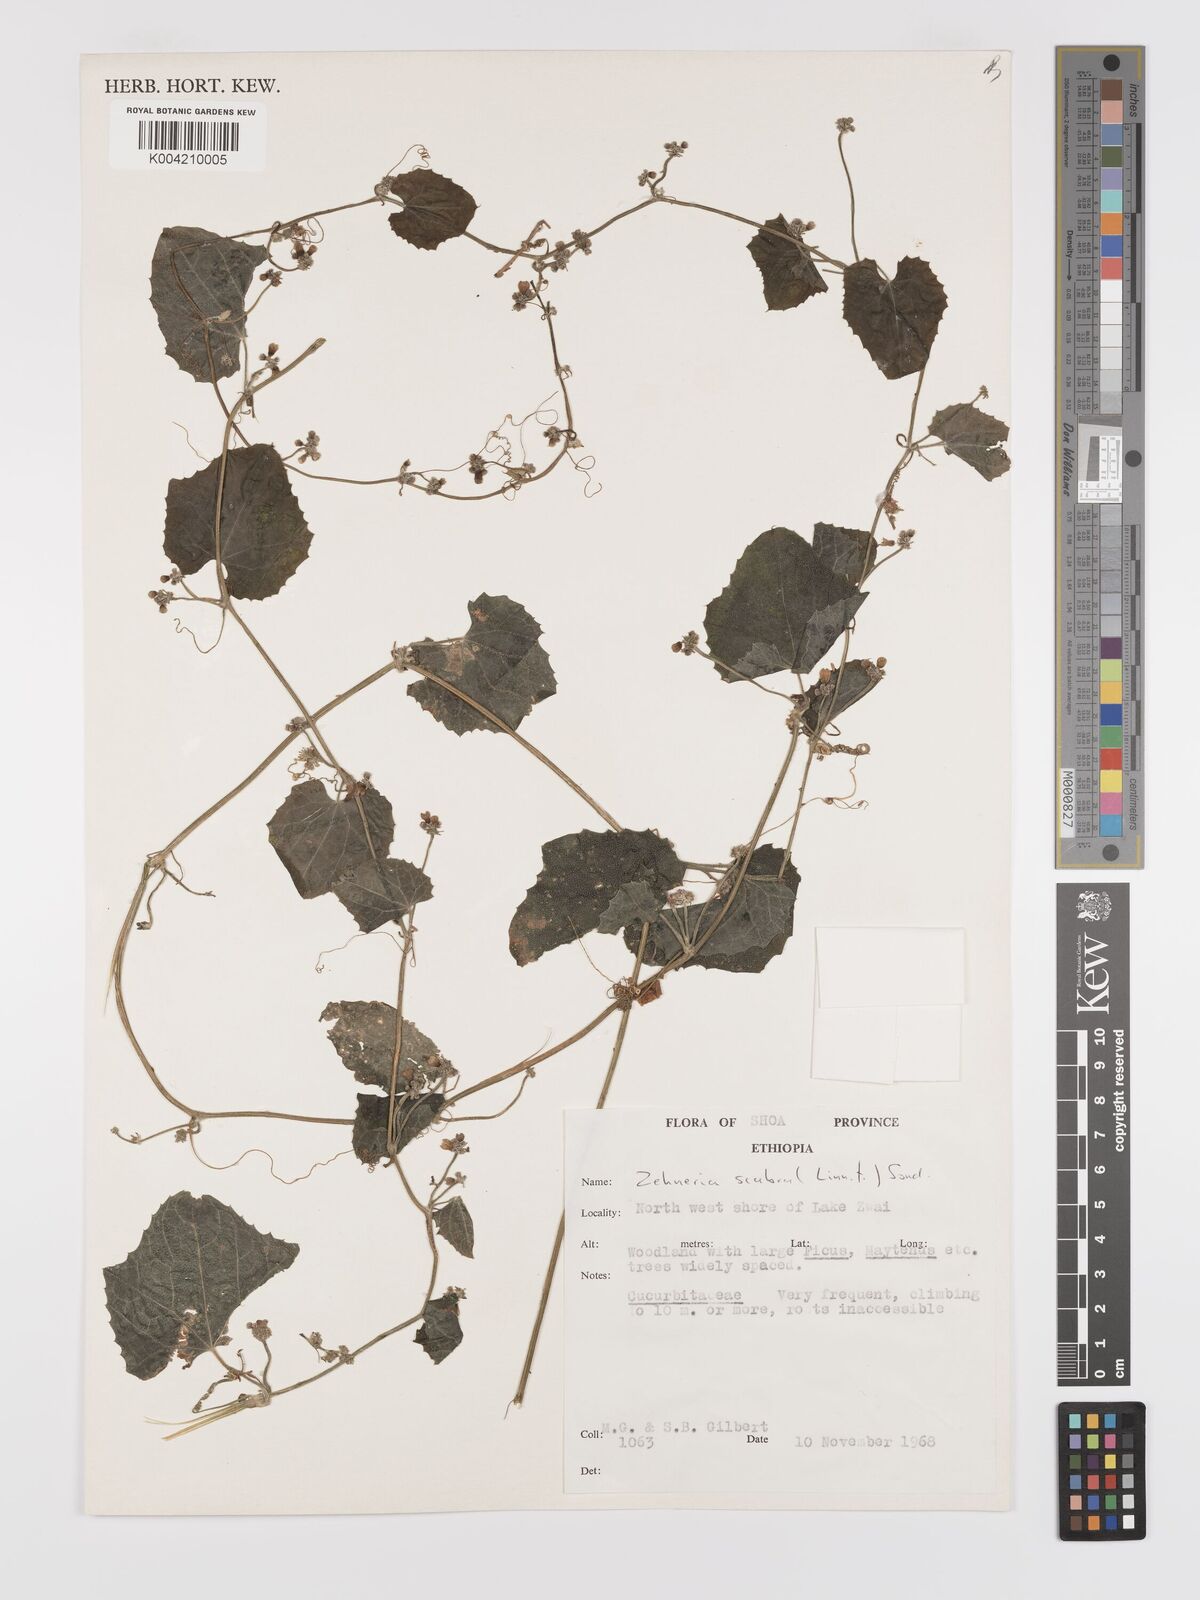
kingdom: Plantae
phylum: Tracheophyta
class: Magnoliopsida
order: Cucurbitales
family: Cucurbitaceae
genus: Zehneria
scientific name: Zehneria scabra
